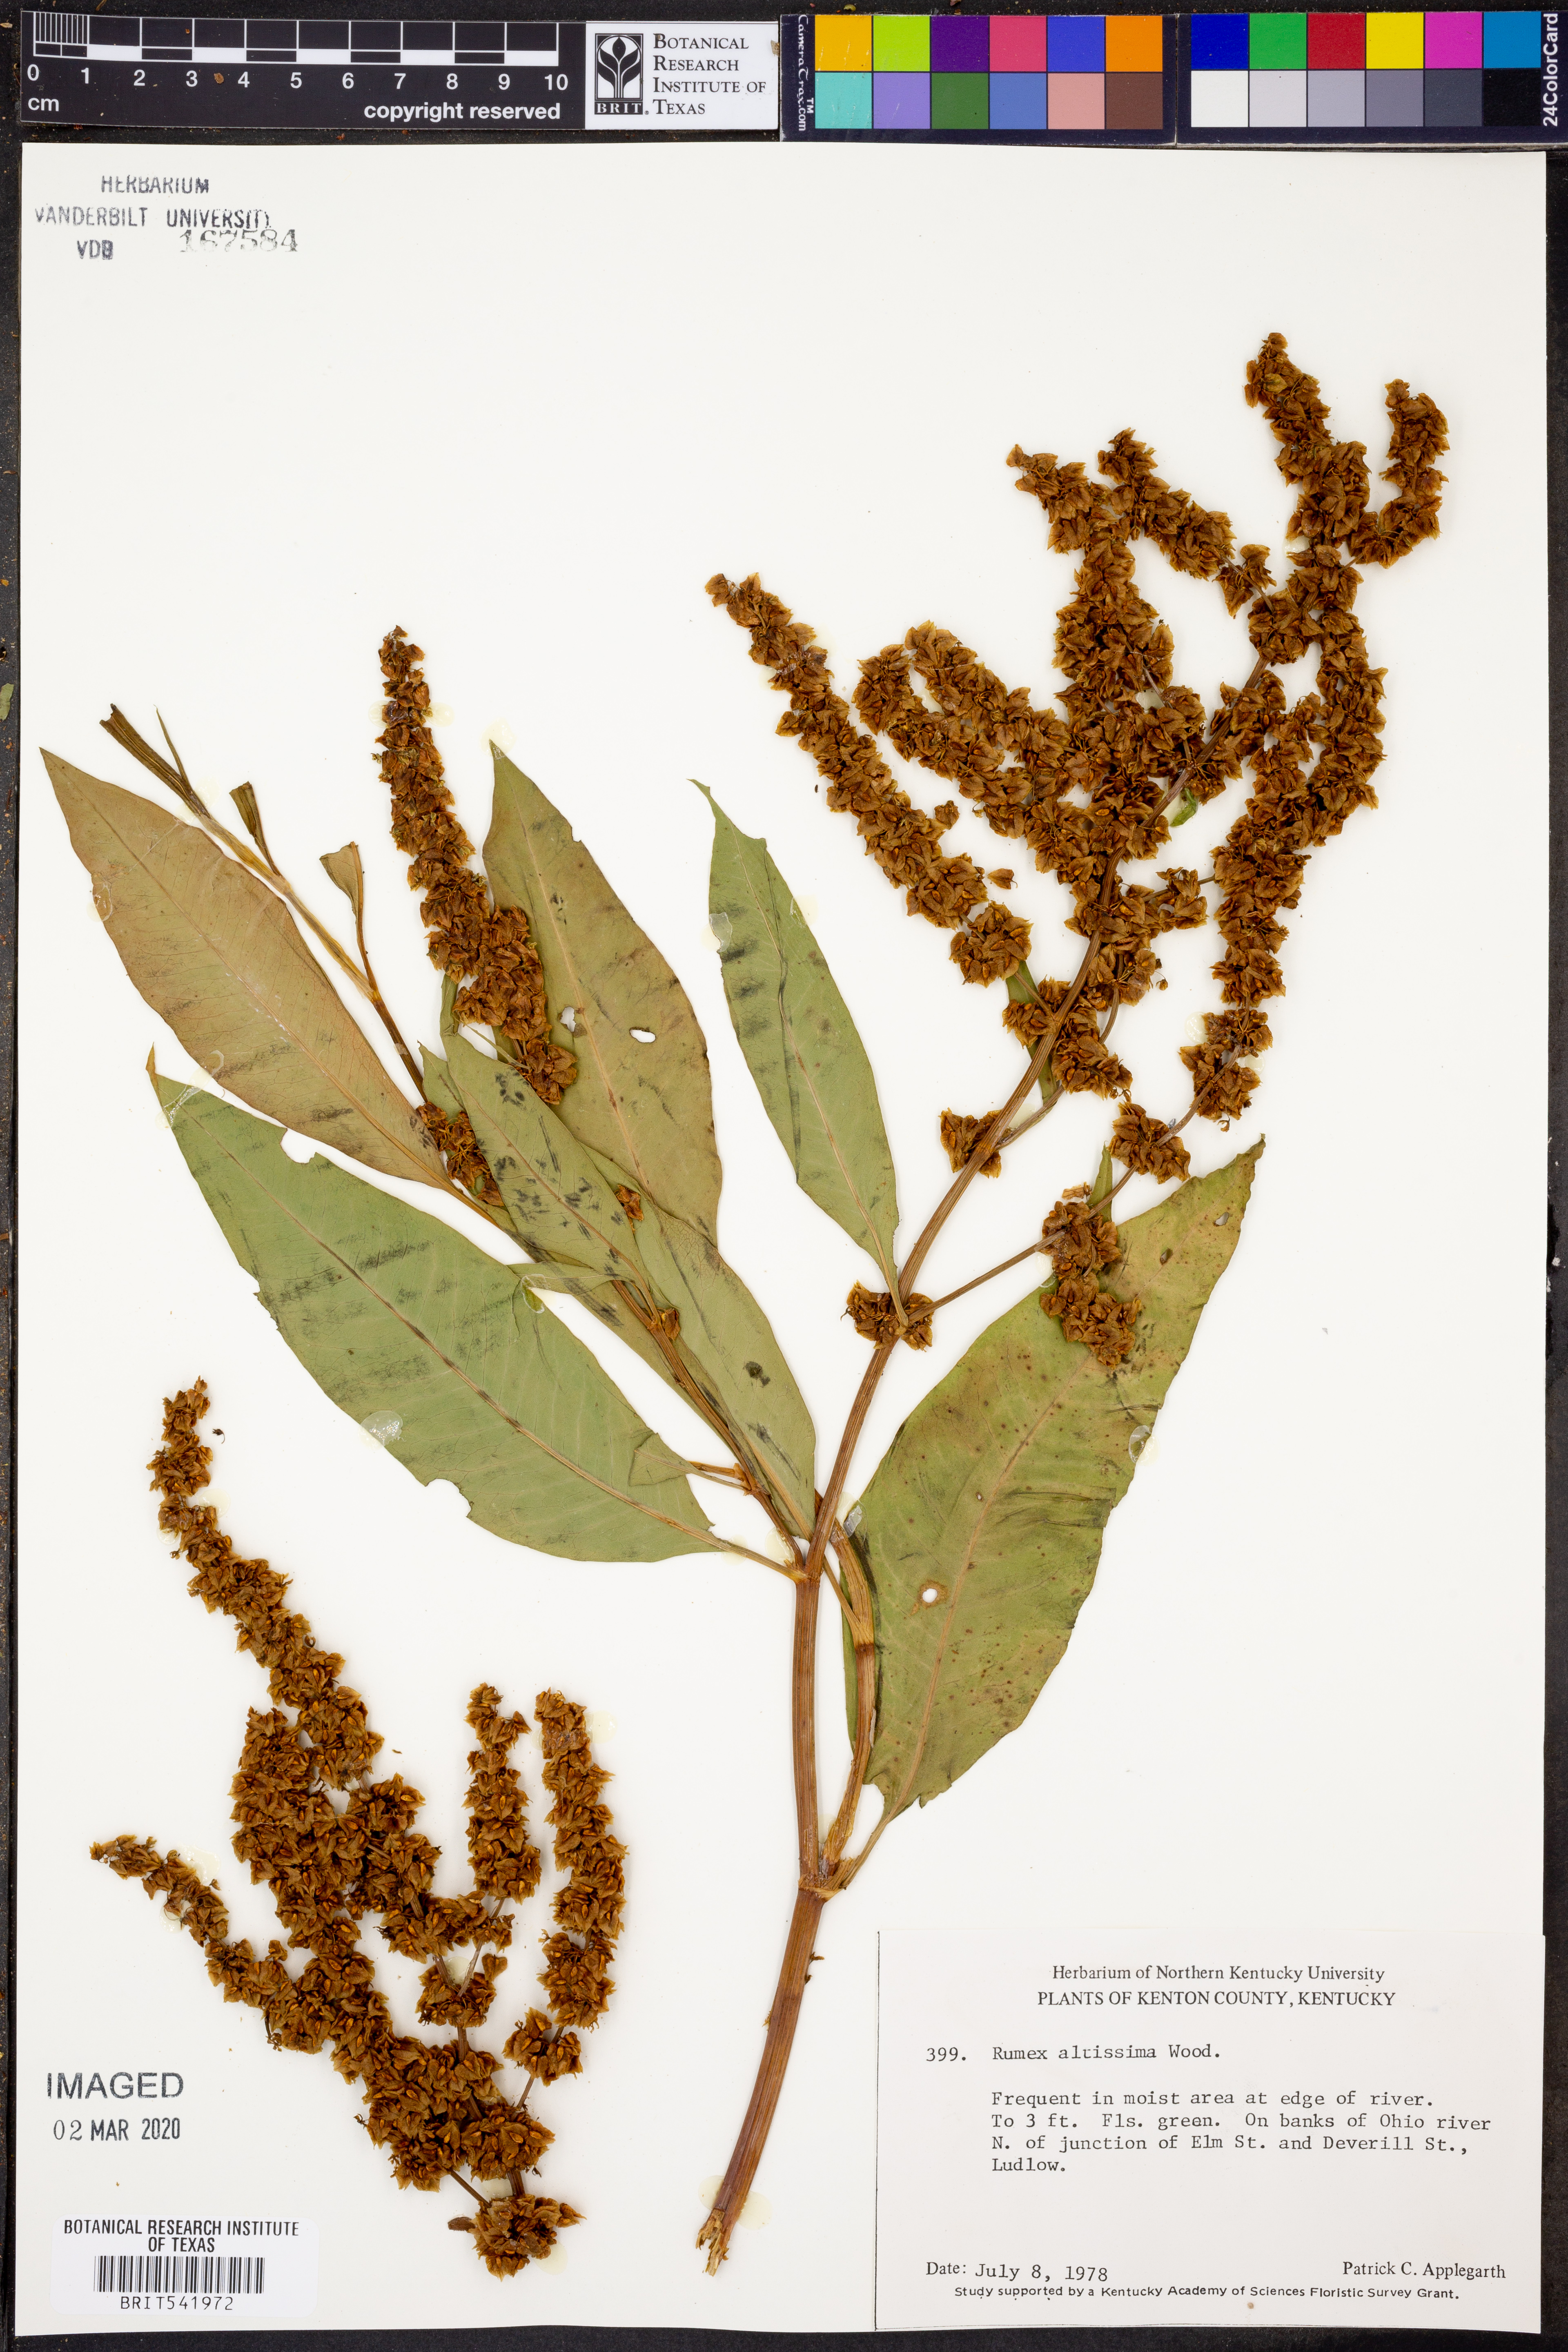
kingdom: Plantae
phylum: Tracheophyta
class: Magnoliopsida
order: Caryophyllales
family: Polygonaceae
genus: Rumex
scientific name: Rumex altissimus
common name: Smooth dock
